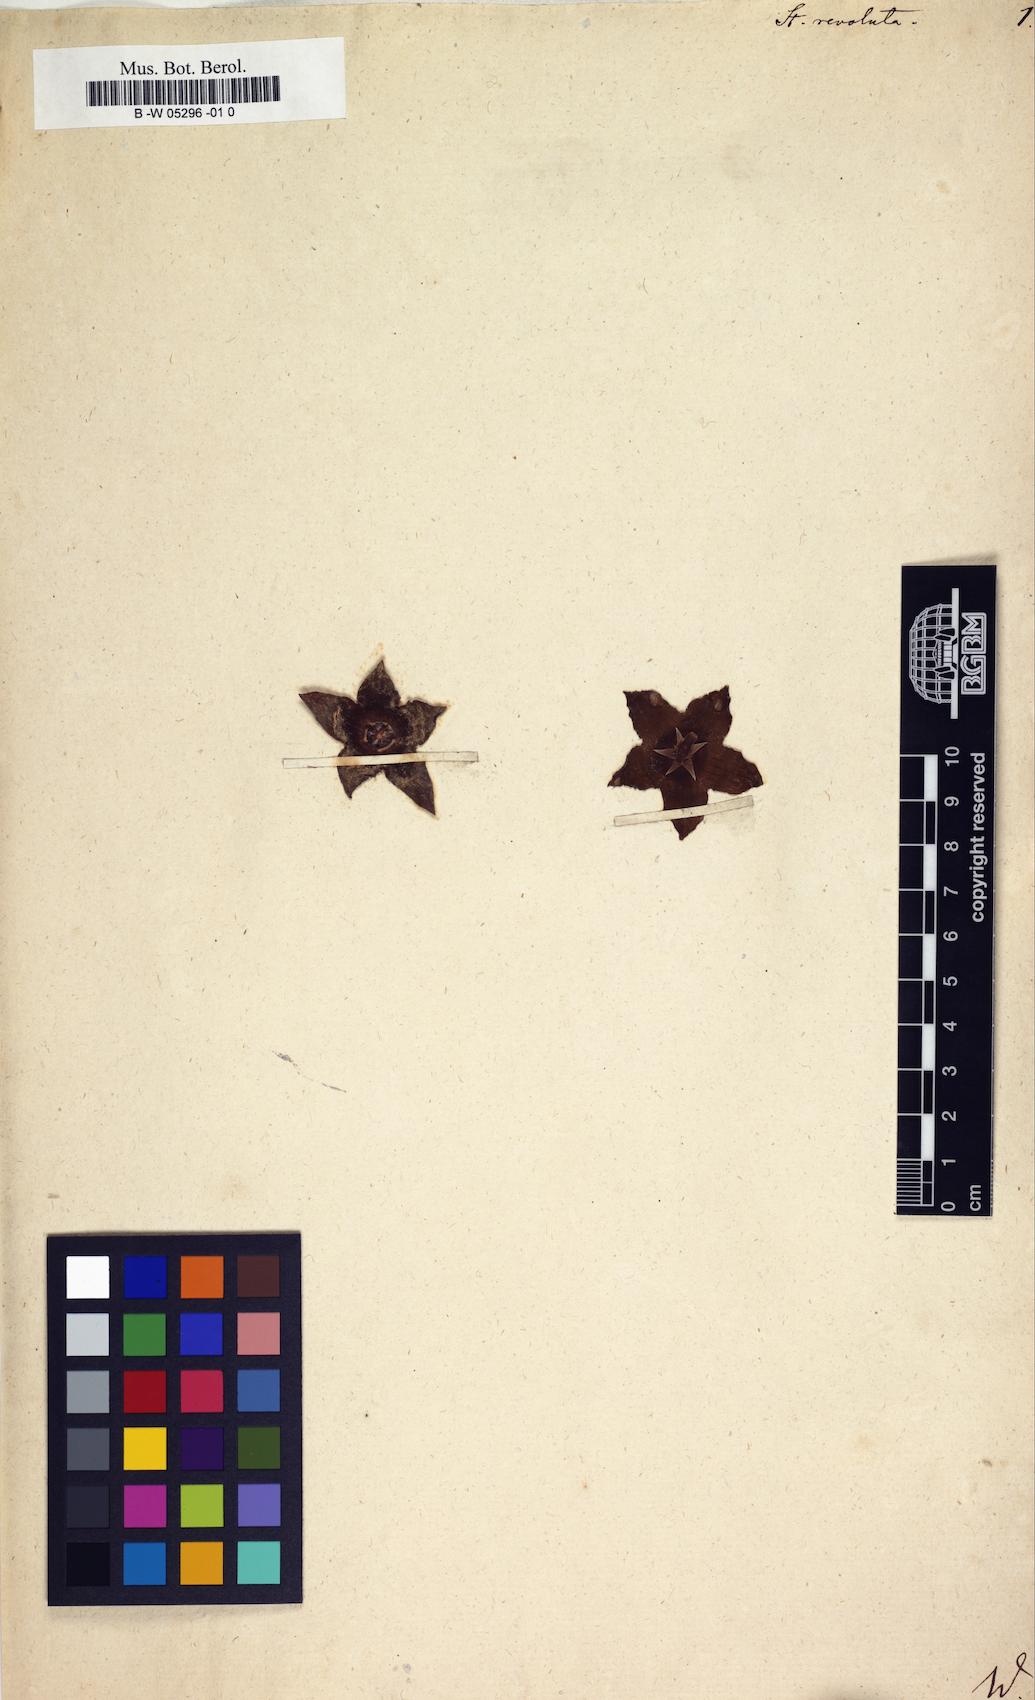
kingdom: Plantae
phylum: Tracheophyta
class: Magnoliopsida
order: Gentianales
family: Apocynaceae
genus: Stapelia
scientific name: Stapelia revoluta
